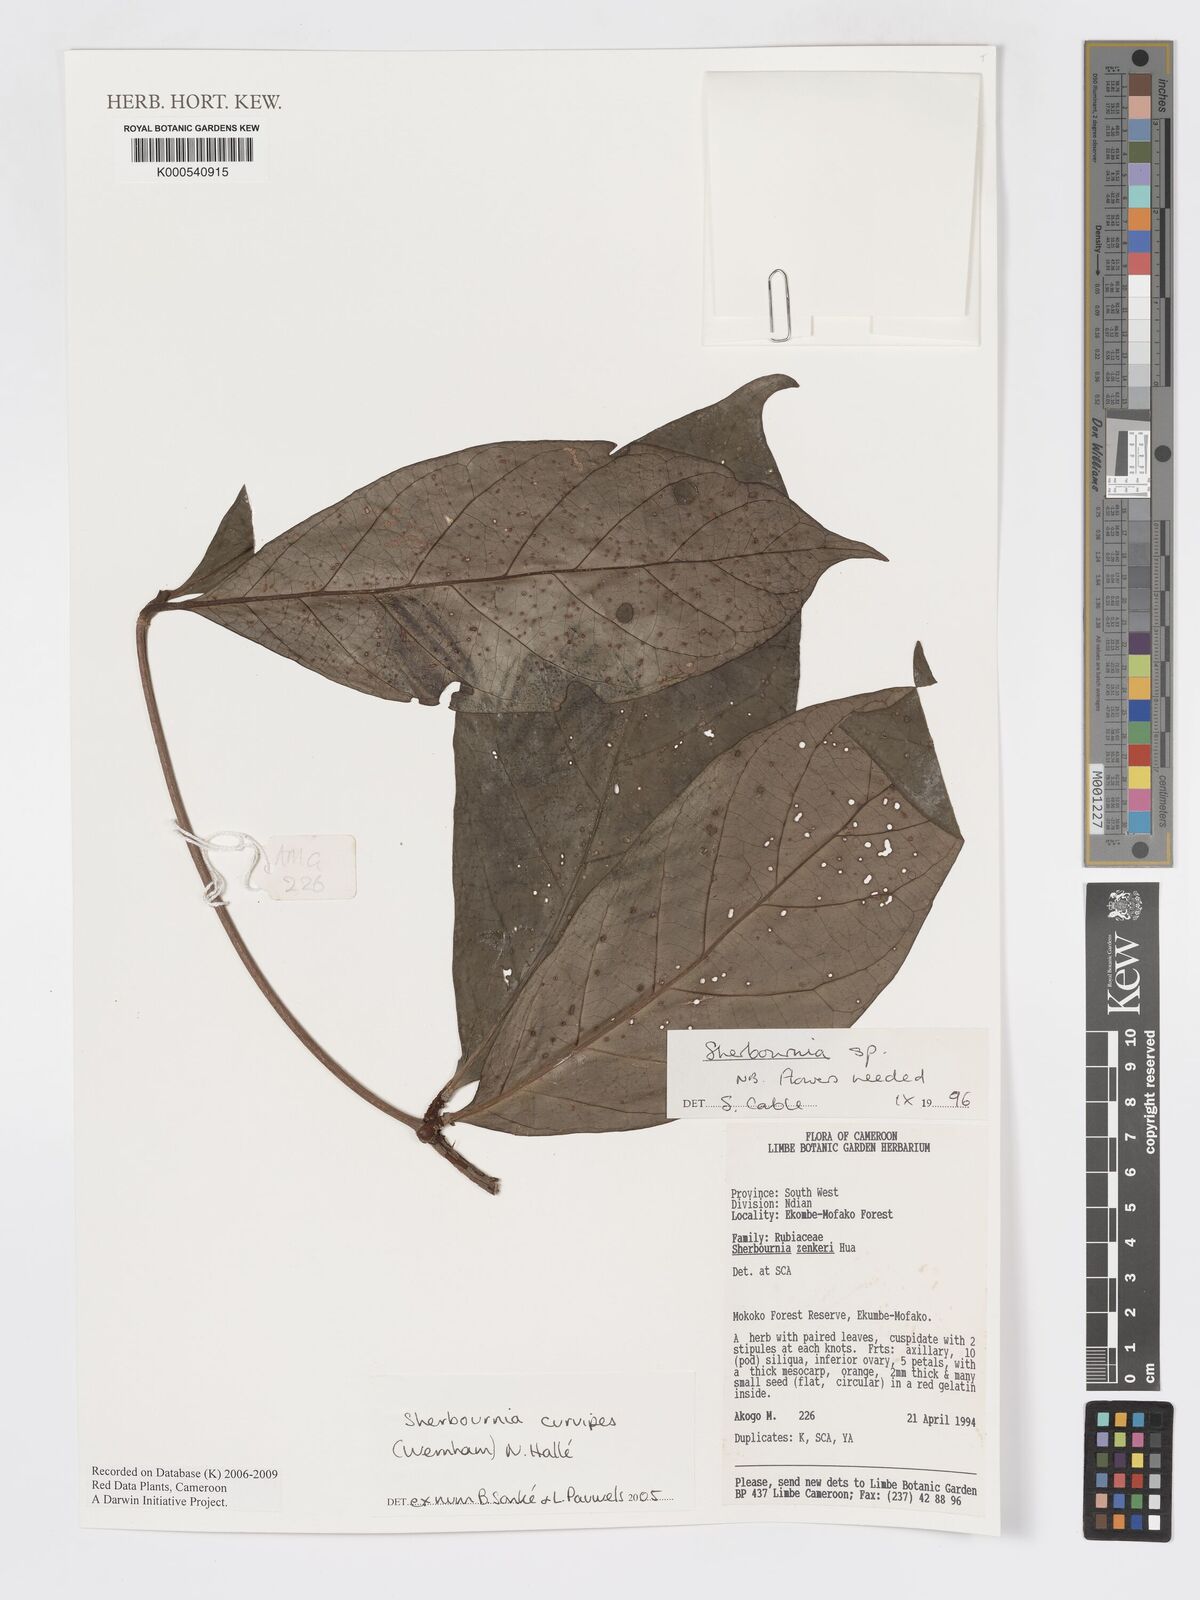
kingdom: Plantae
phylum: Tracheophyta
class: Magnoliopsida
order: Gentianales
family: Rubiaceae
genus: Sherbournia
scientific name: Sherbournia
